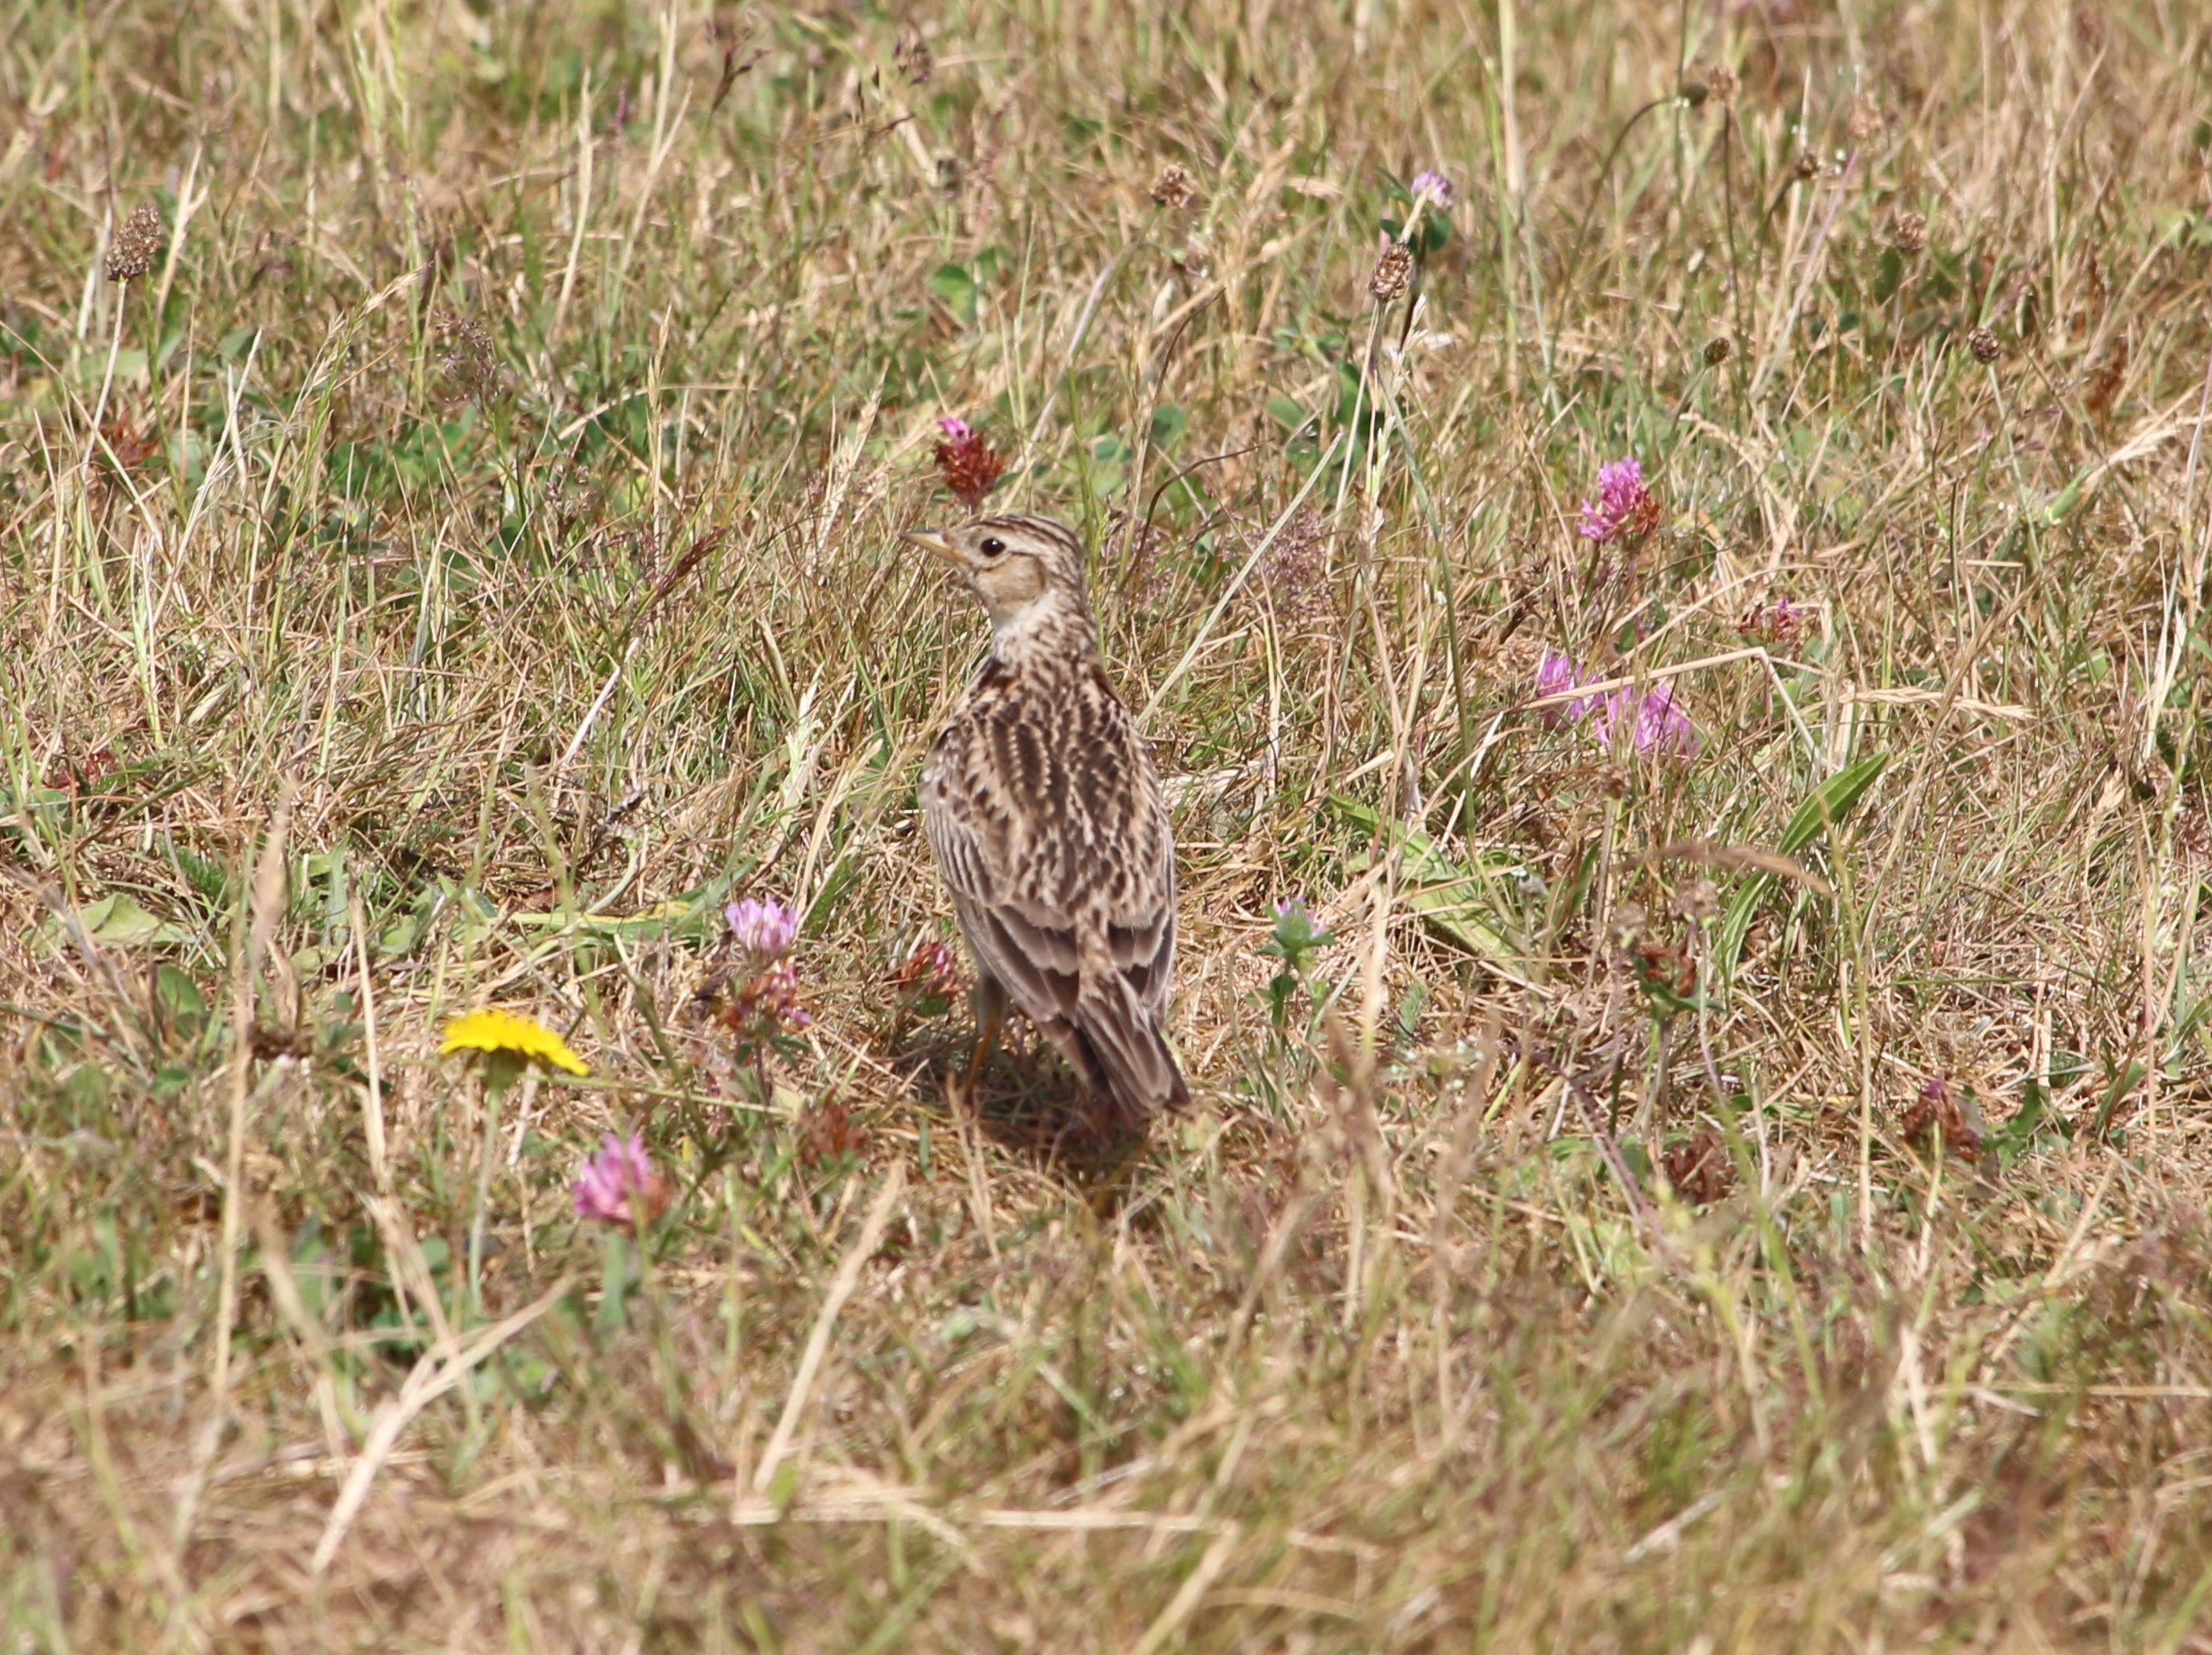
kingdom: Animalia
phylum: Chordata
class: Aves
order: Passeriformes
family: Alaudidae
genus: Alauda
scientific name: Alauda arvensis
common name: Sanglærke
